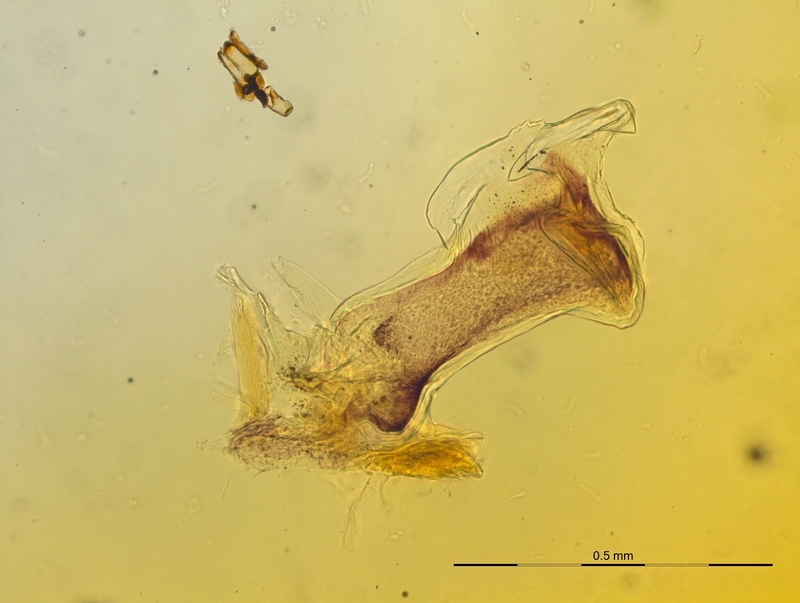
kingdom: Animalia
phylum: Arthropoda
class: Diplopoda
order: Chordeumatida
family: Craspedosomatidae
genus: Craspedosoma
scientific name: Craspedosoma transsilvanicum
